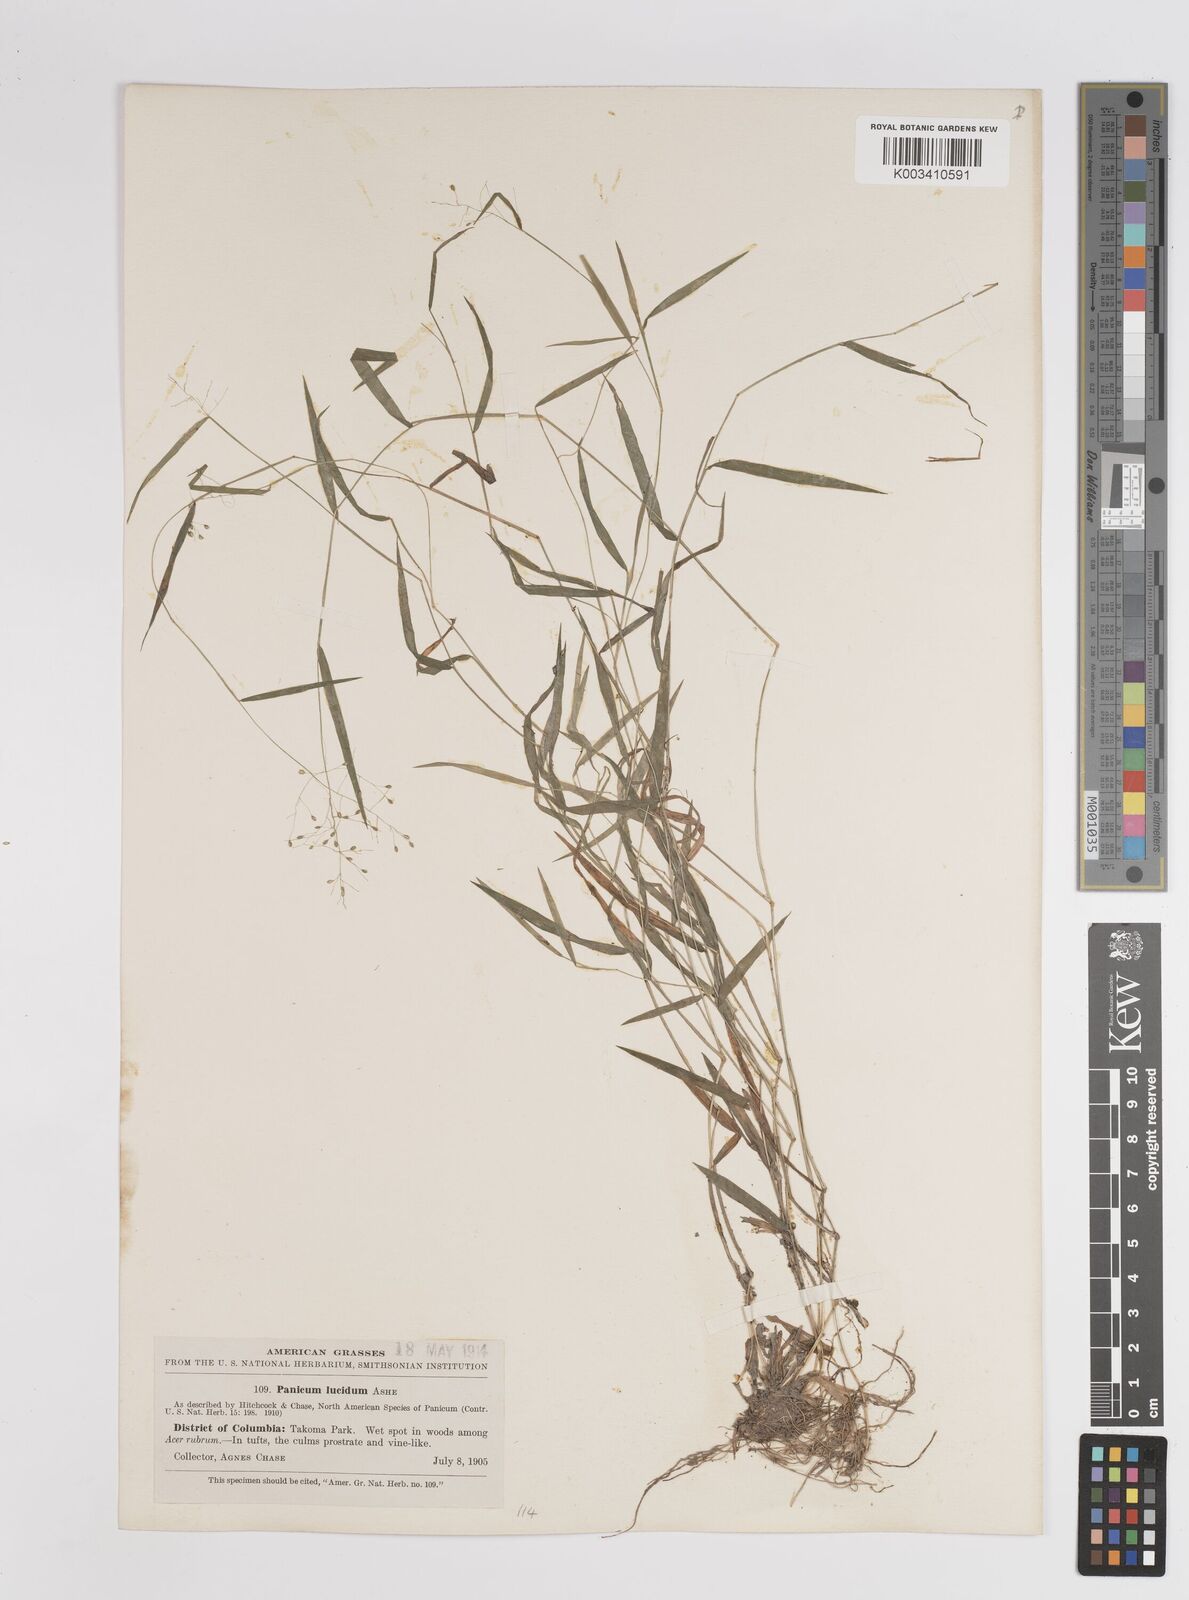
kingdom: Plantae
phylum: Tracheophyta
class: Liliopsida
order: Poales
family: Poaceae
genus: Dichanthelium
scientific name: Dichanthelium lucidum
